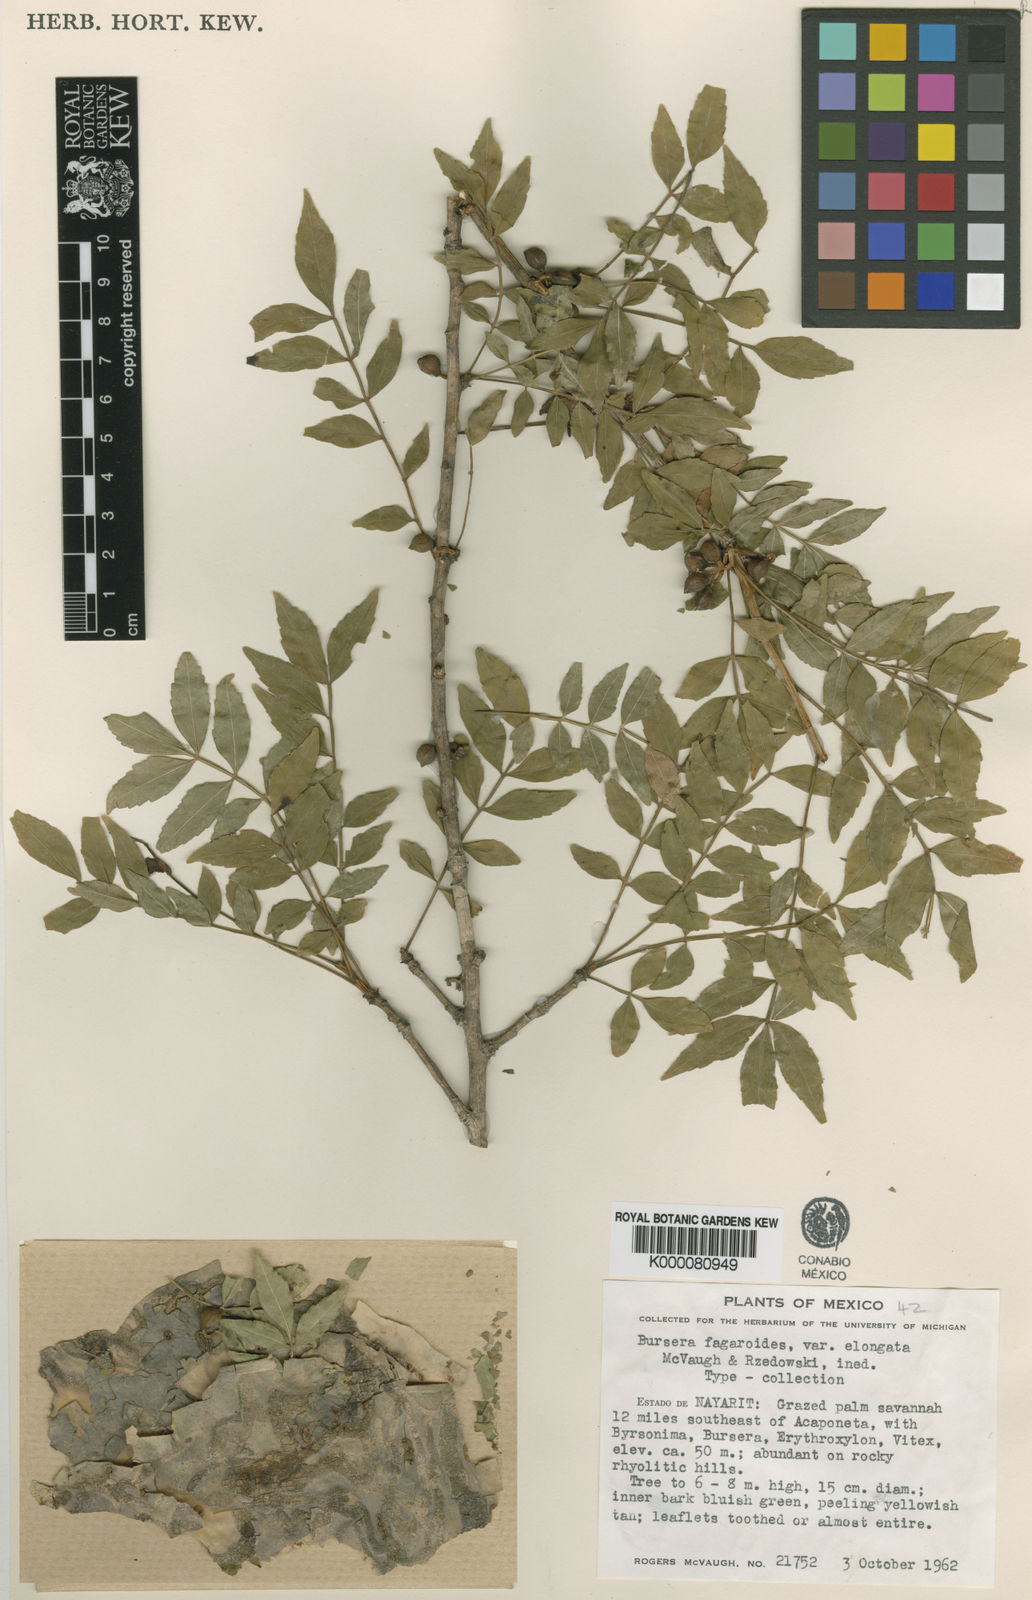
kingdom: Plantae
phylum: Tracheophyta
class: Magnoliopsida
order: Sapindales
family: Burseraceae
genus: Bursera
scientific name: Bursera fagaroides
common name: Elephant tree
